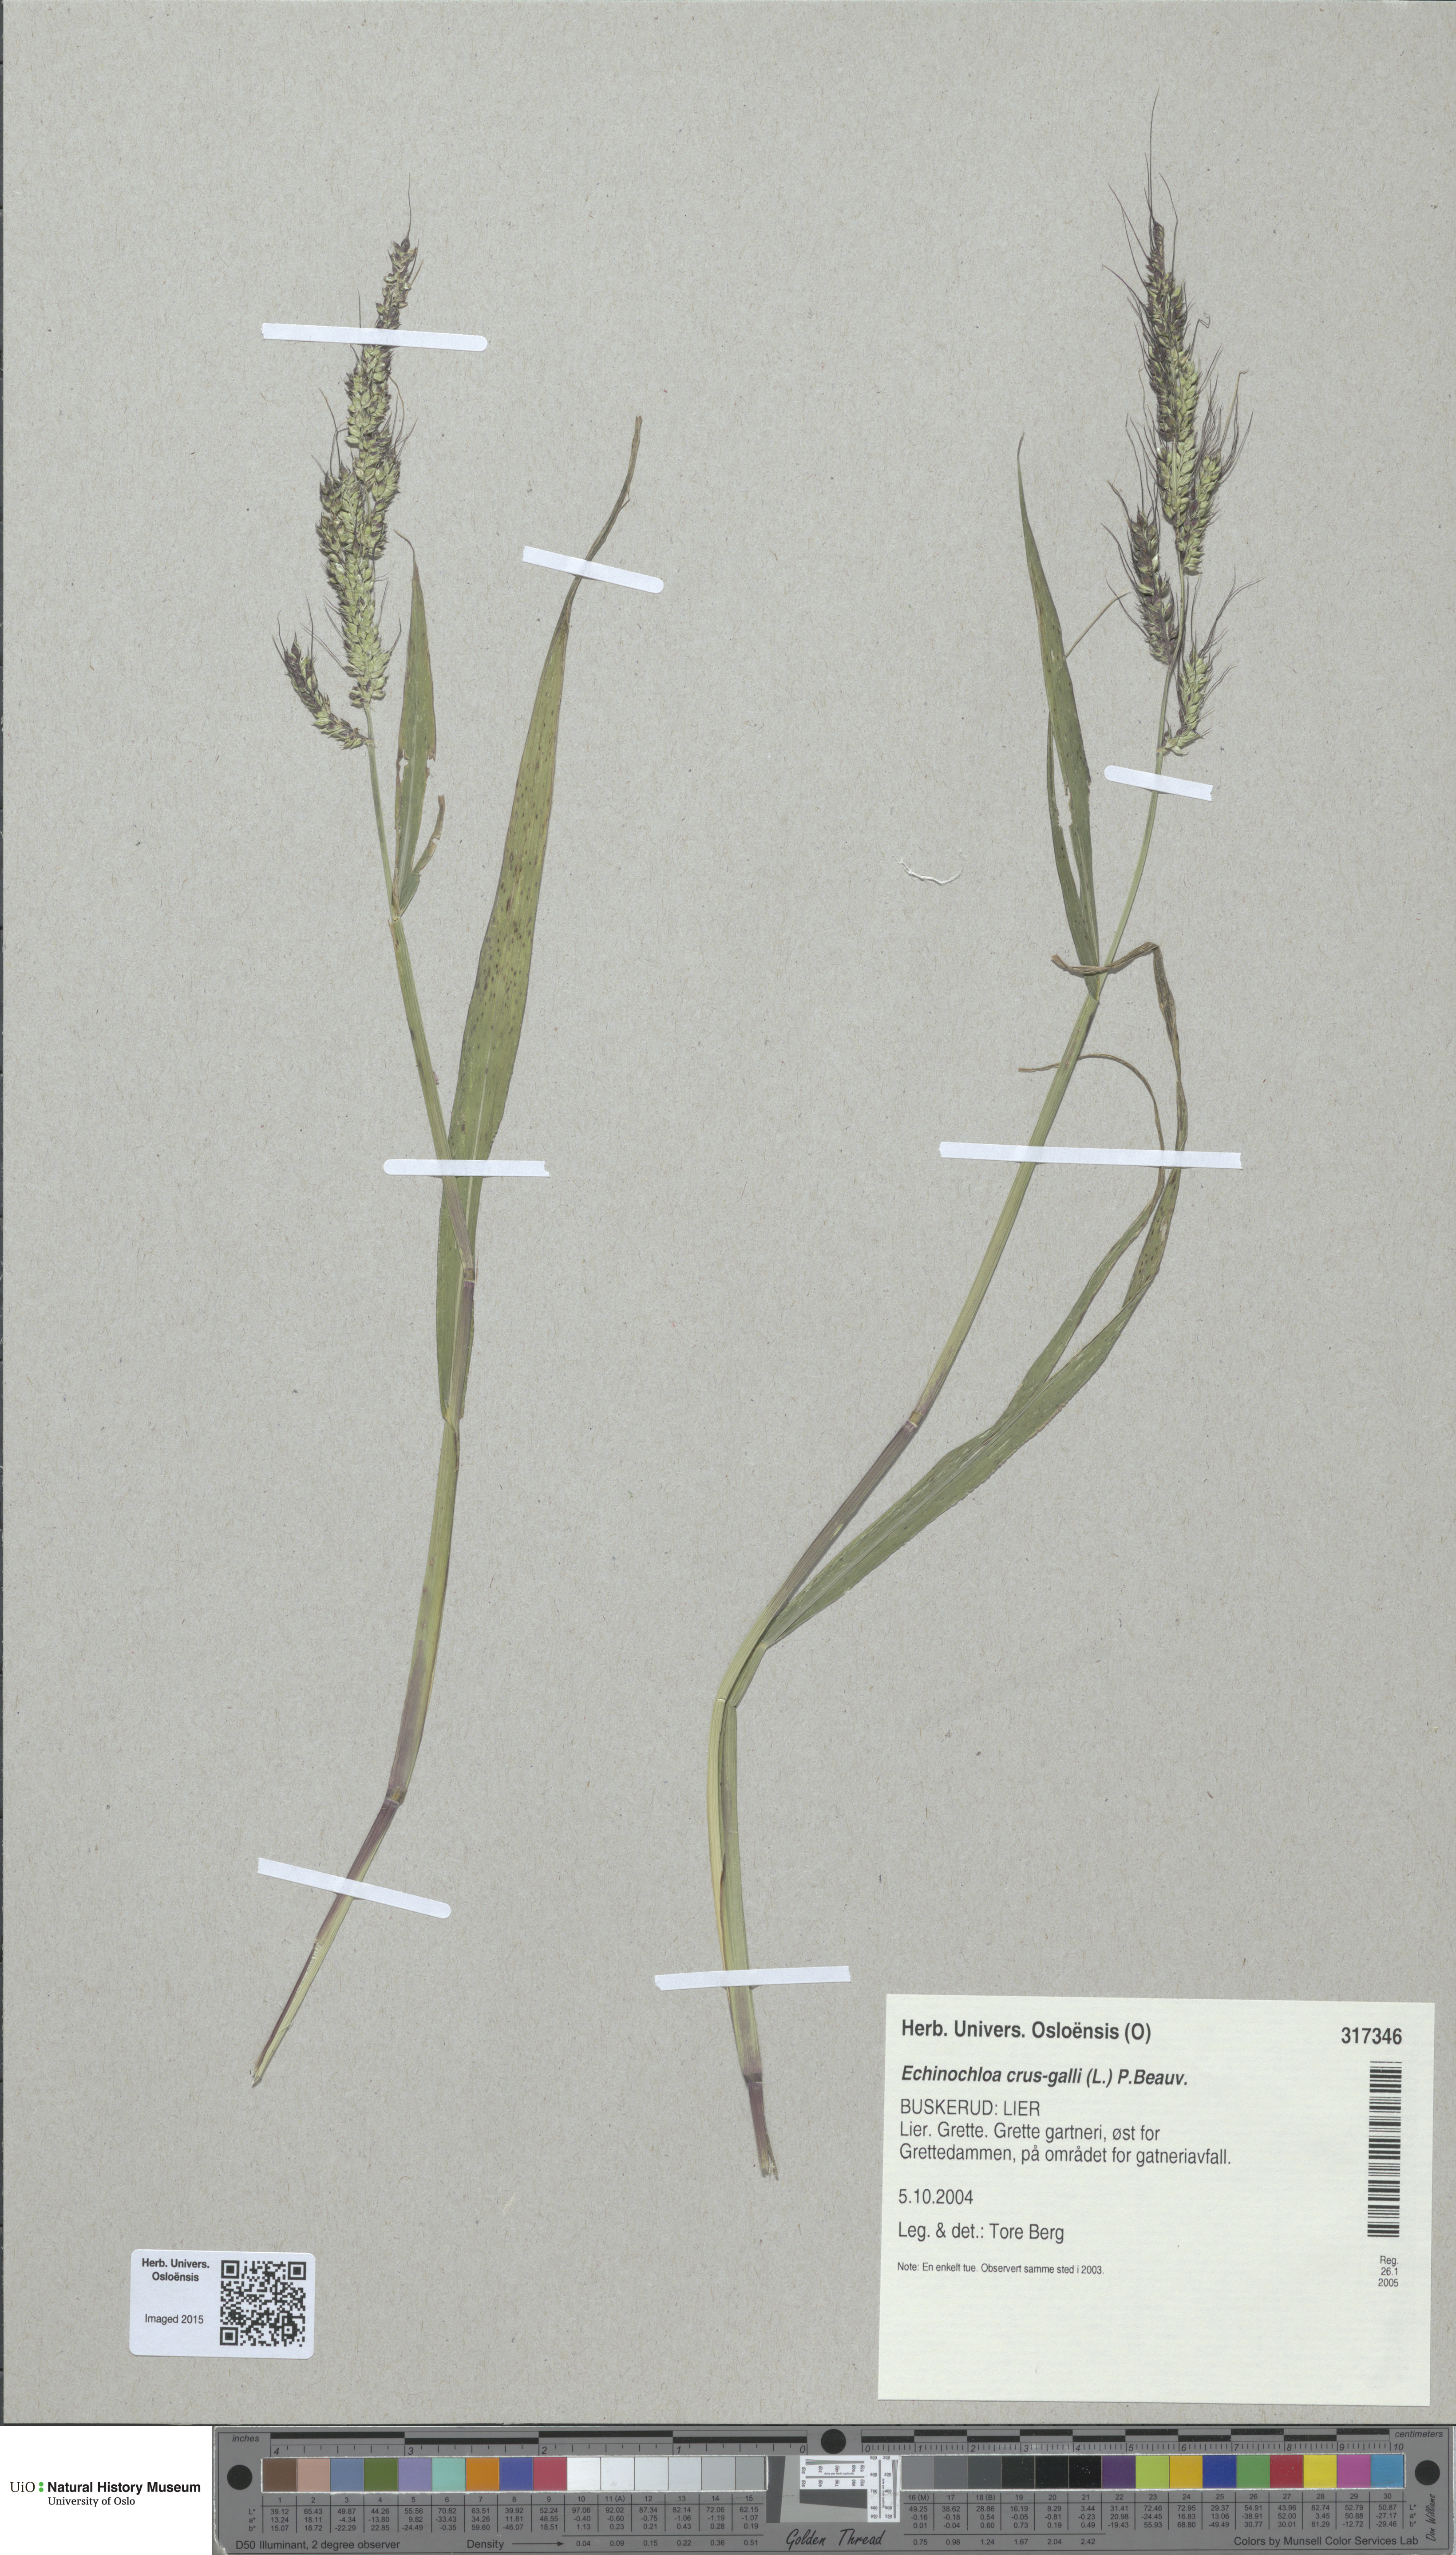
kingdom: Plantae
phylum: Tracheophyta
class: Liliopsida
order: Poales
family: Poaceae
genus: Echinochloa
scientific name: Echinochloa crus-galli
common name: Cockspur
